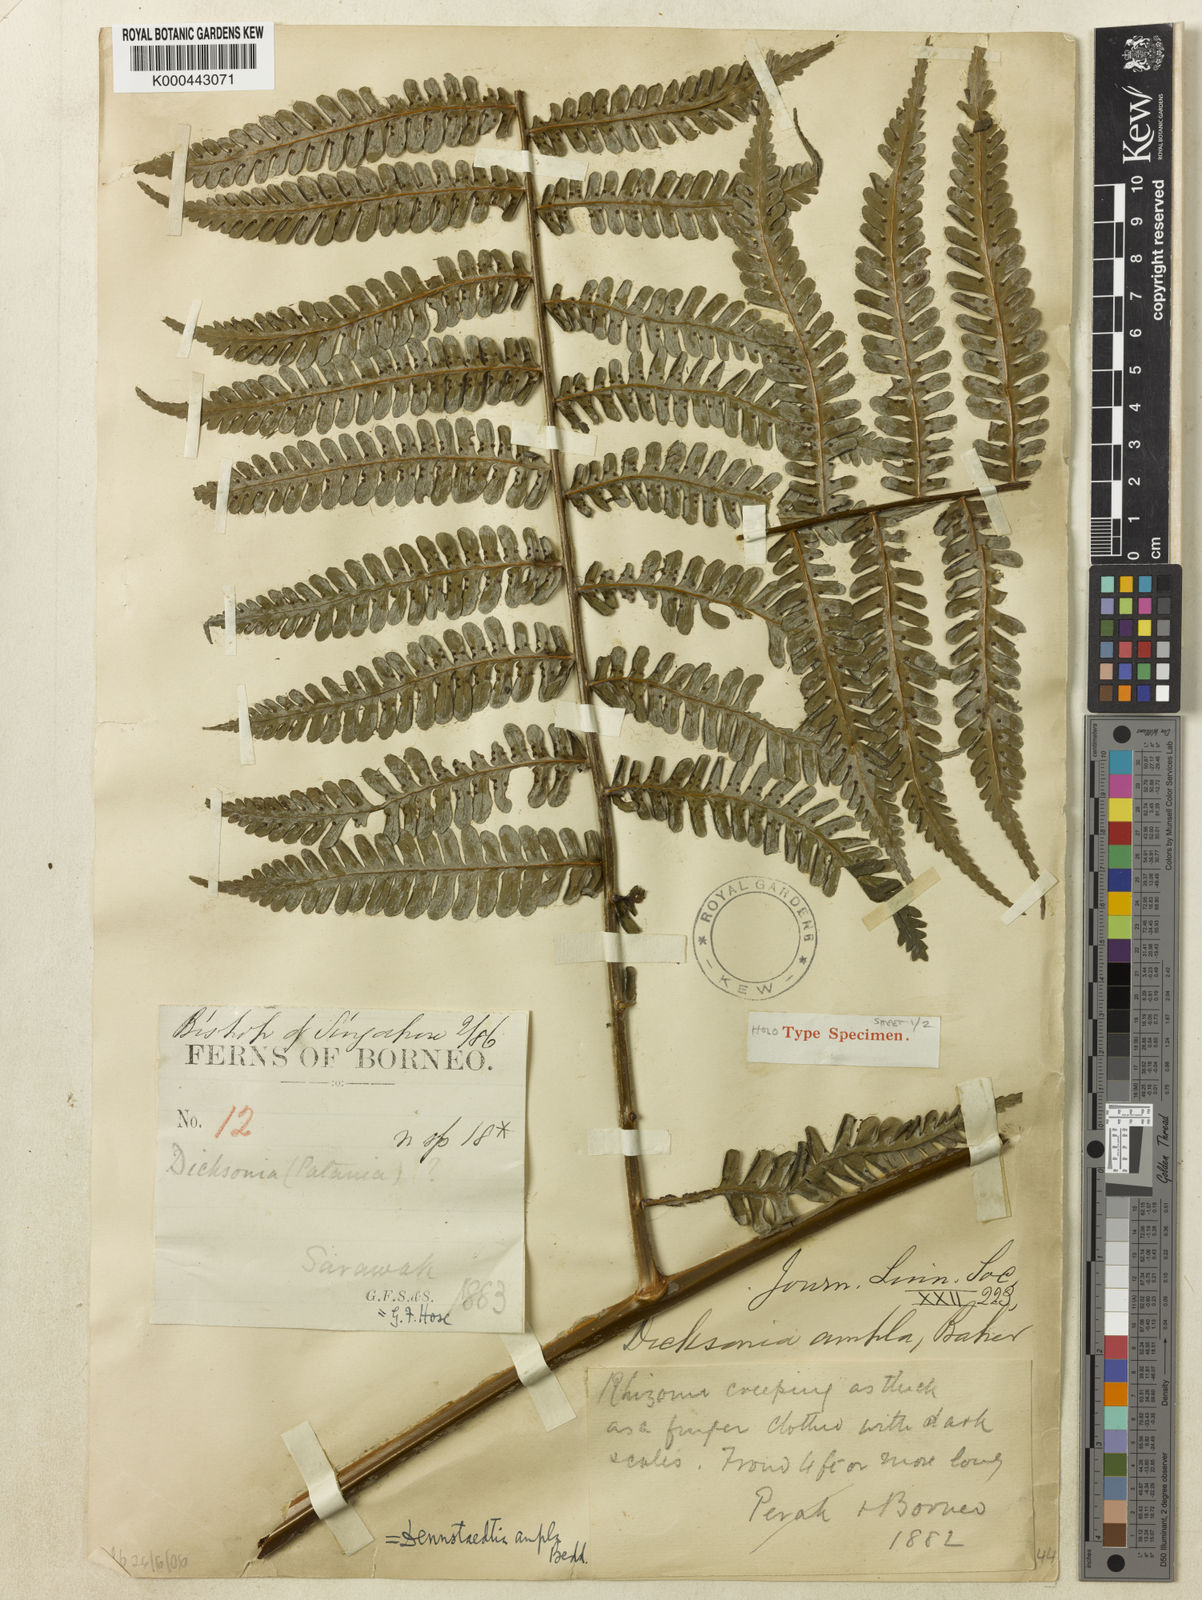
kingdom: Plantae
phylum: Tracheophyta
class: Polypodiopsida
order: Polypodiales
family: Dennstaedtiaceae
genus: Dennstaedtia
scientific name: Dennstaedtia ampla
